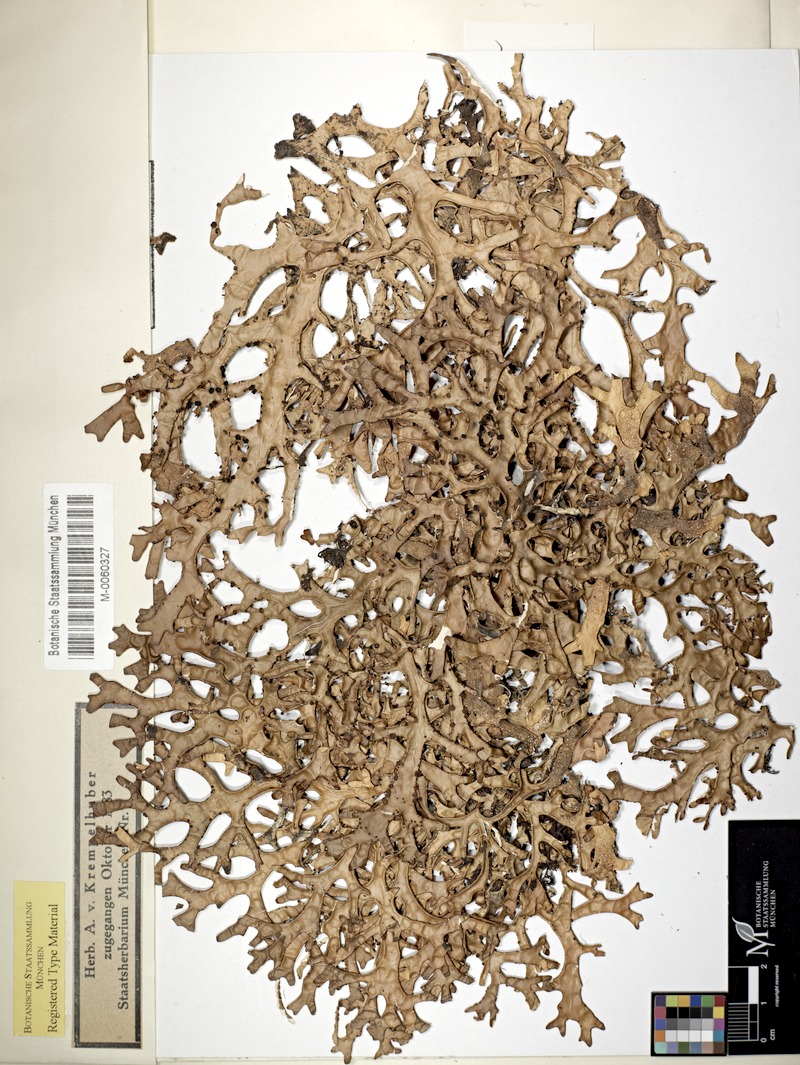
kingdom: Fungi
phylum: Ascomycota
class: Lecanoromycetes
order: Peltigerales
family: Lobariaceae
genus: Pseudocyphellaria
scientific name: Pseudocyphellaria malmeana
